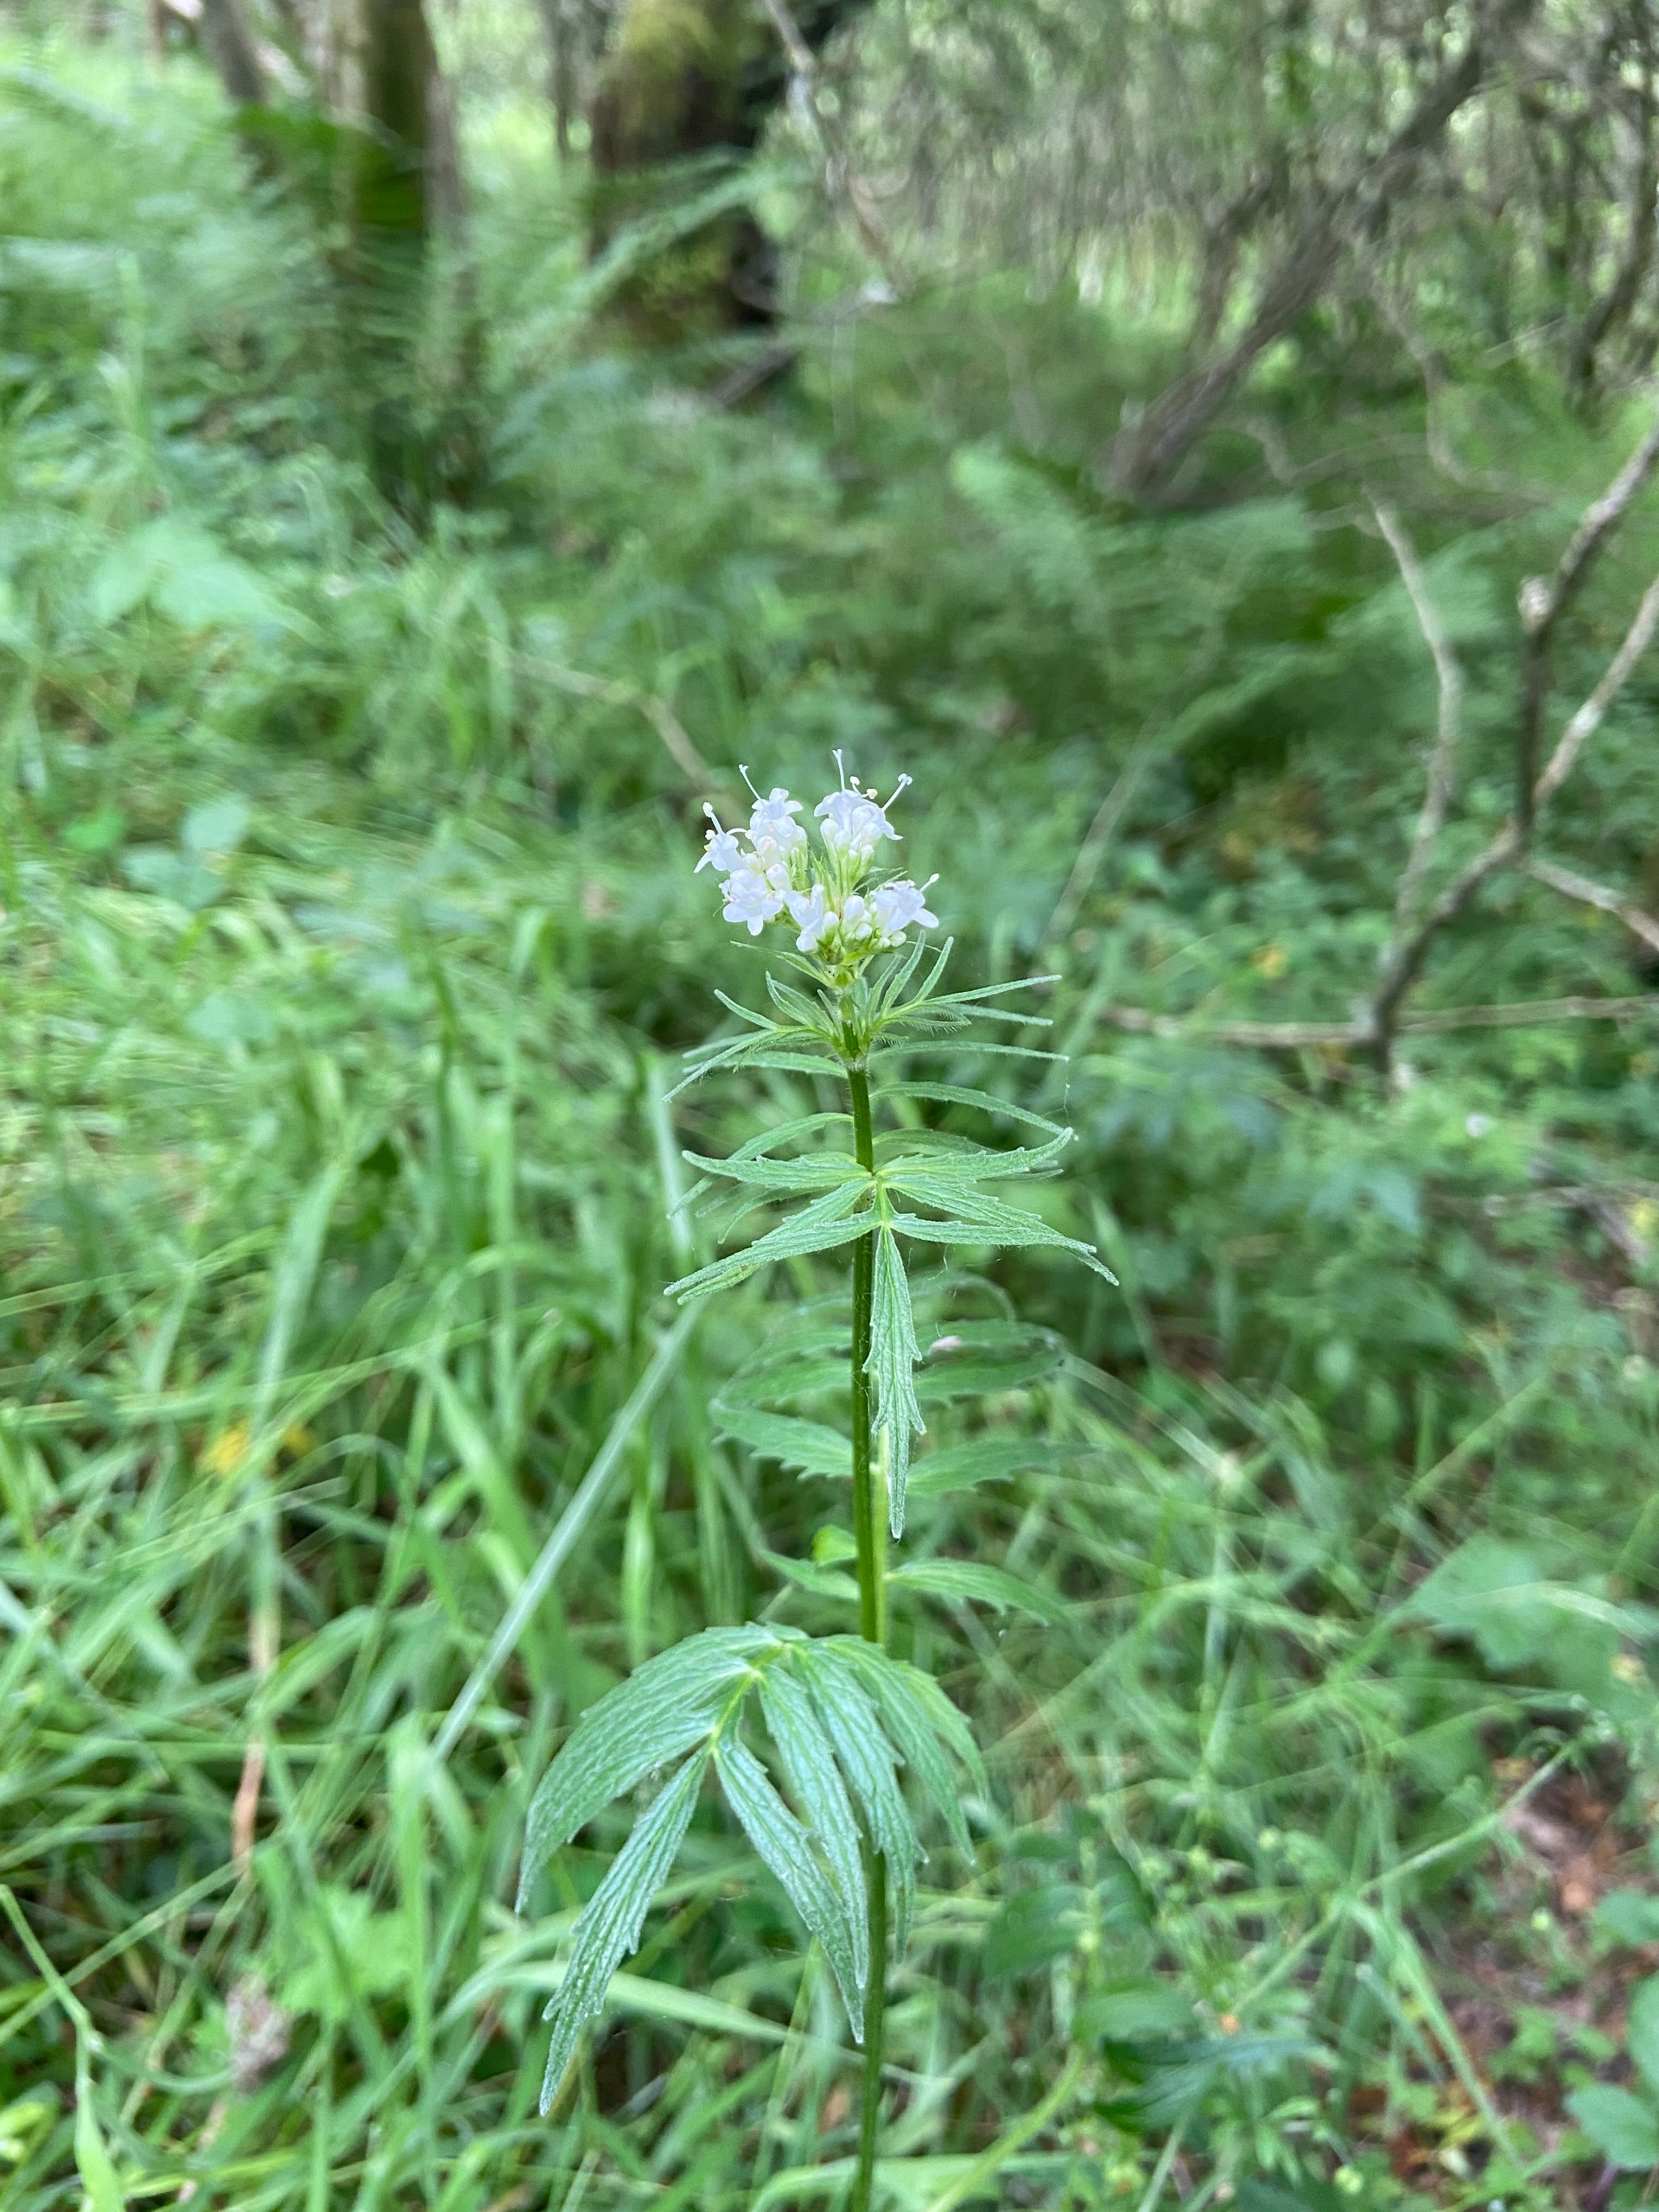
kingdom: Plantae
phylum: Tracheophyta
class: Magnoliopsida
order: Dipsacales
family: Caprifoliaceae
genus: Valeriana
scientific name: Valeriana sambucifolia
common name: Hyldebladet baldrian
